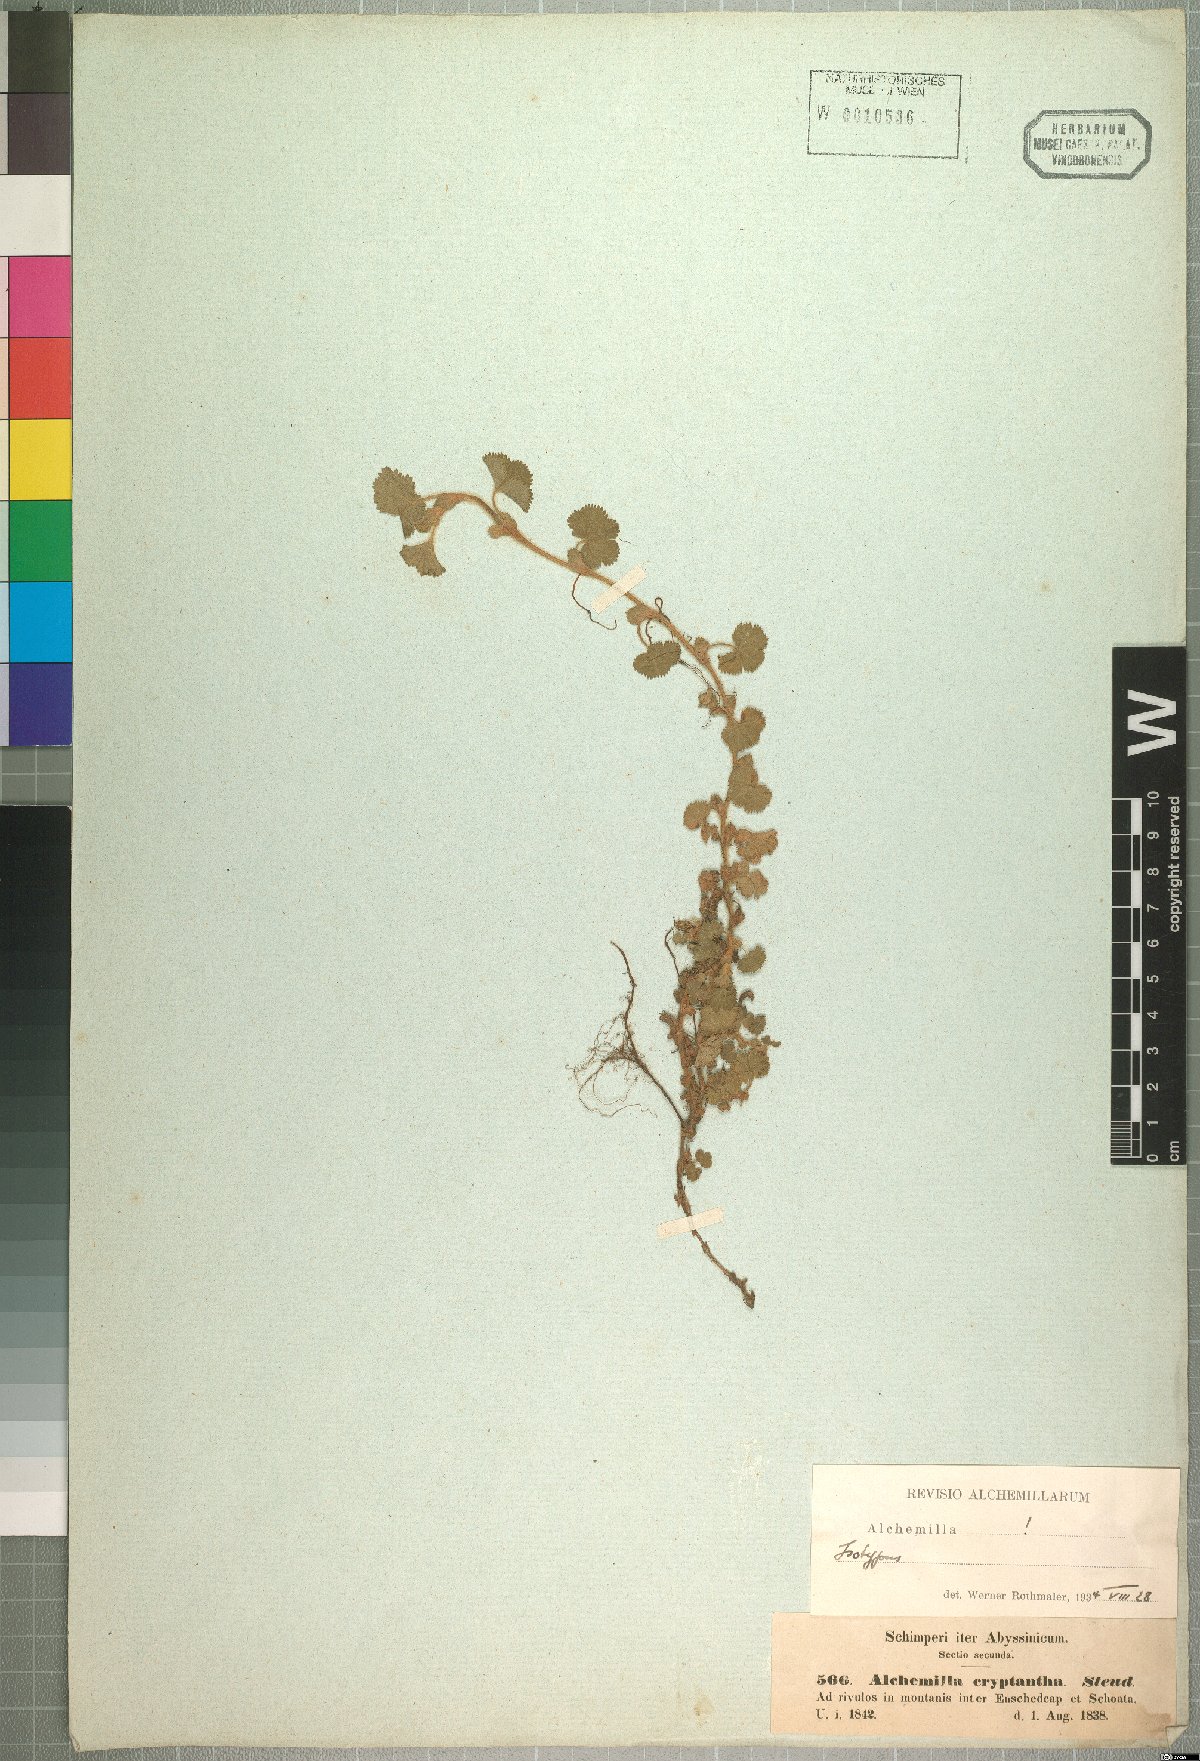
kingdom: Plantae
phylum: Tracheophyta
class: Magnoliopsida
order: Rosales
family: Rosaceae
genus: Alchemilla
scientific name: Alchemilla cryptantha
